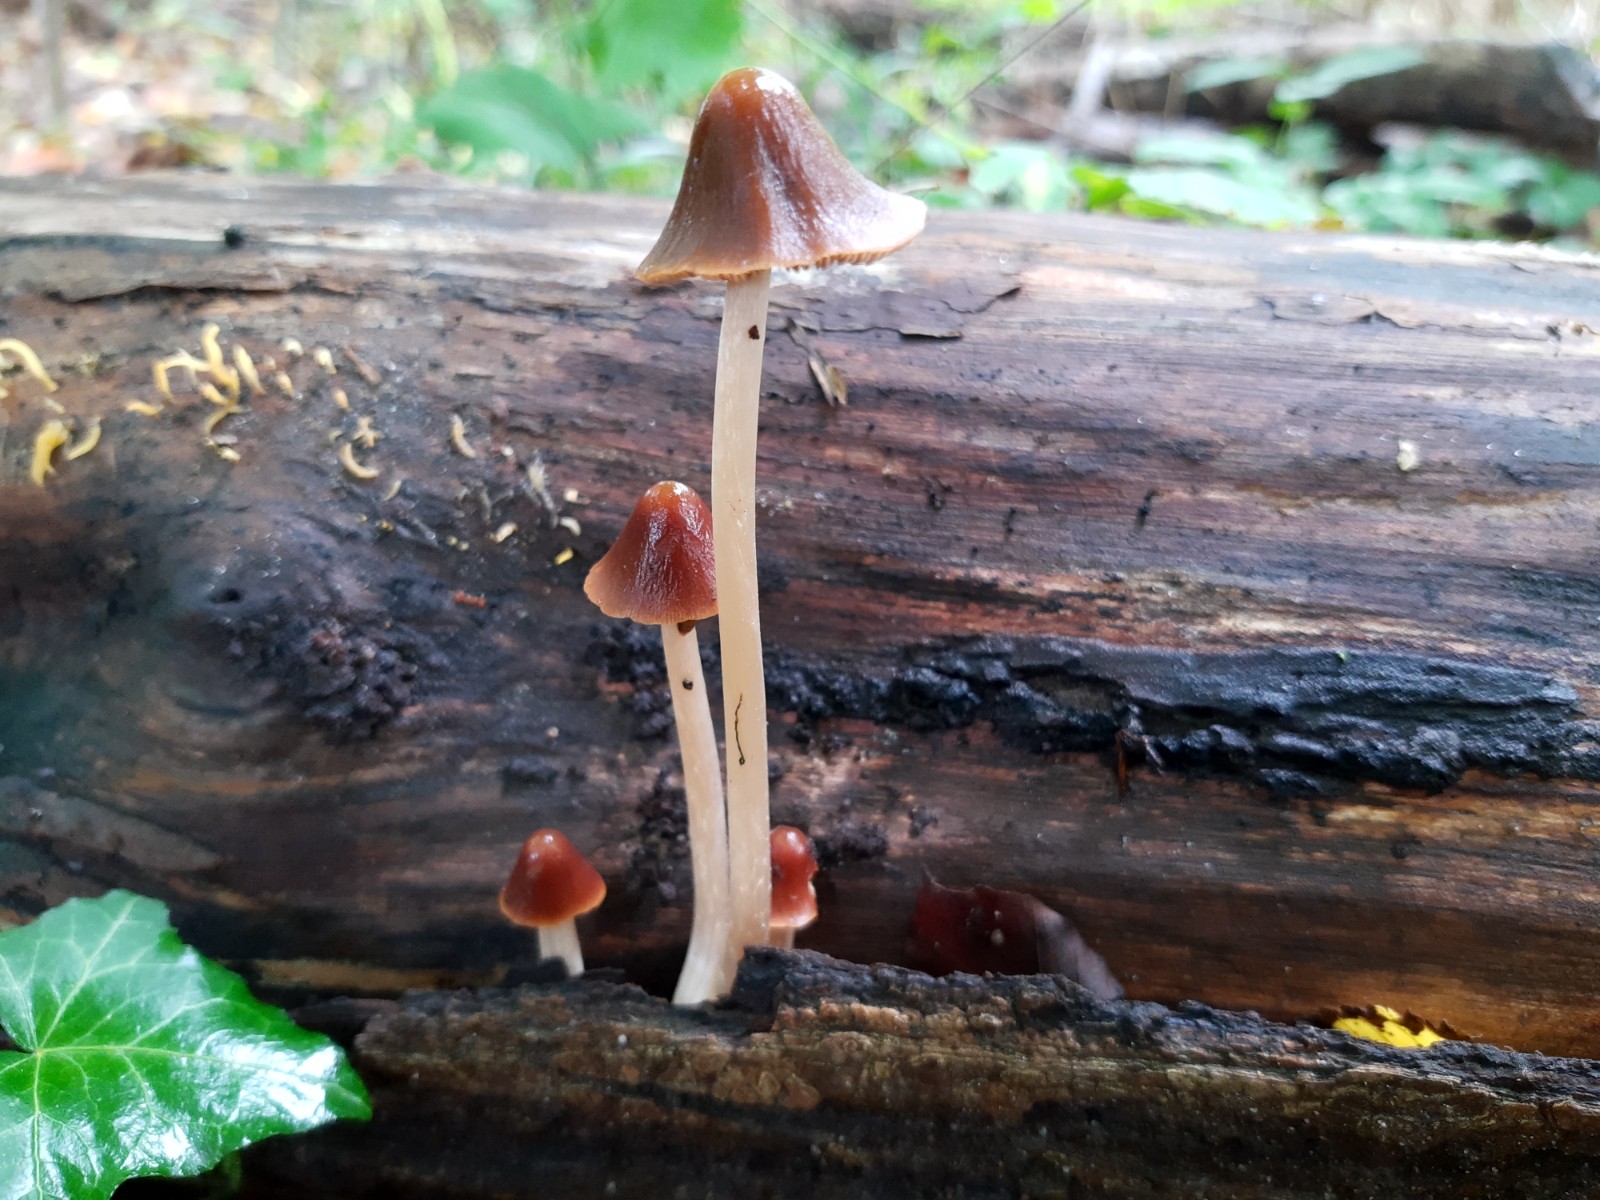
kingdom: Fungi
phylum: Basidiomycota
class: Agaricomycetes
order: Agaricales
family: Psathyrellaceae
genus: Parasola
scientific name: Parasola conopilea
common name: kegle-hjulhat
